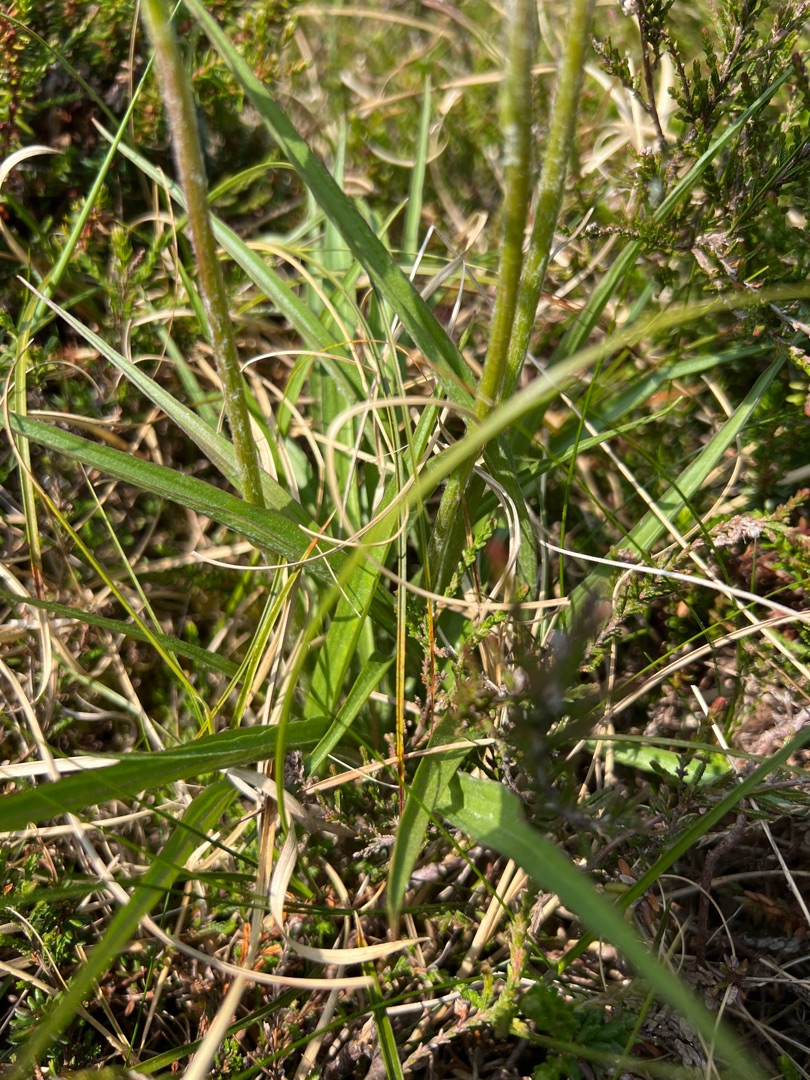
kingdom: Plantae
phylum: Tracheophyta
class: Magnoliopsida
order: Asterales
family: Asteraceae
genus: Scorzonera
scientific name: Scorzonera humilis
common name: Lav skorsoner
